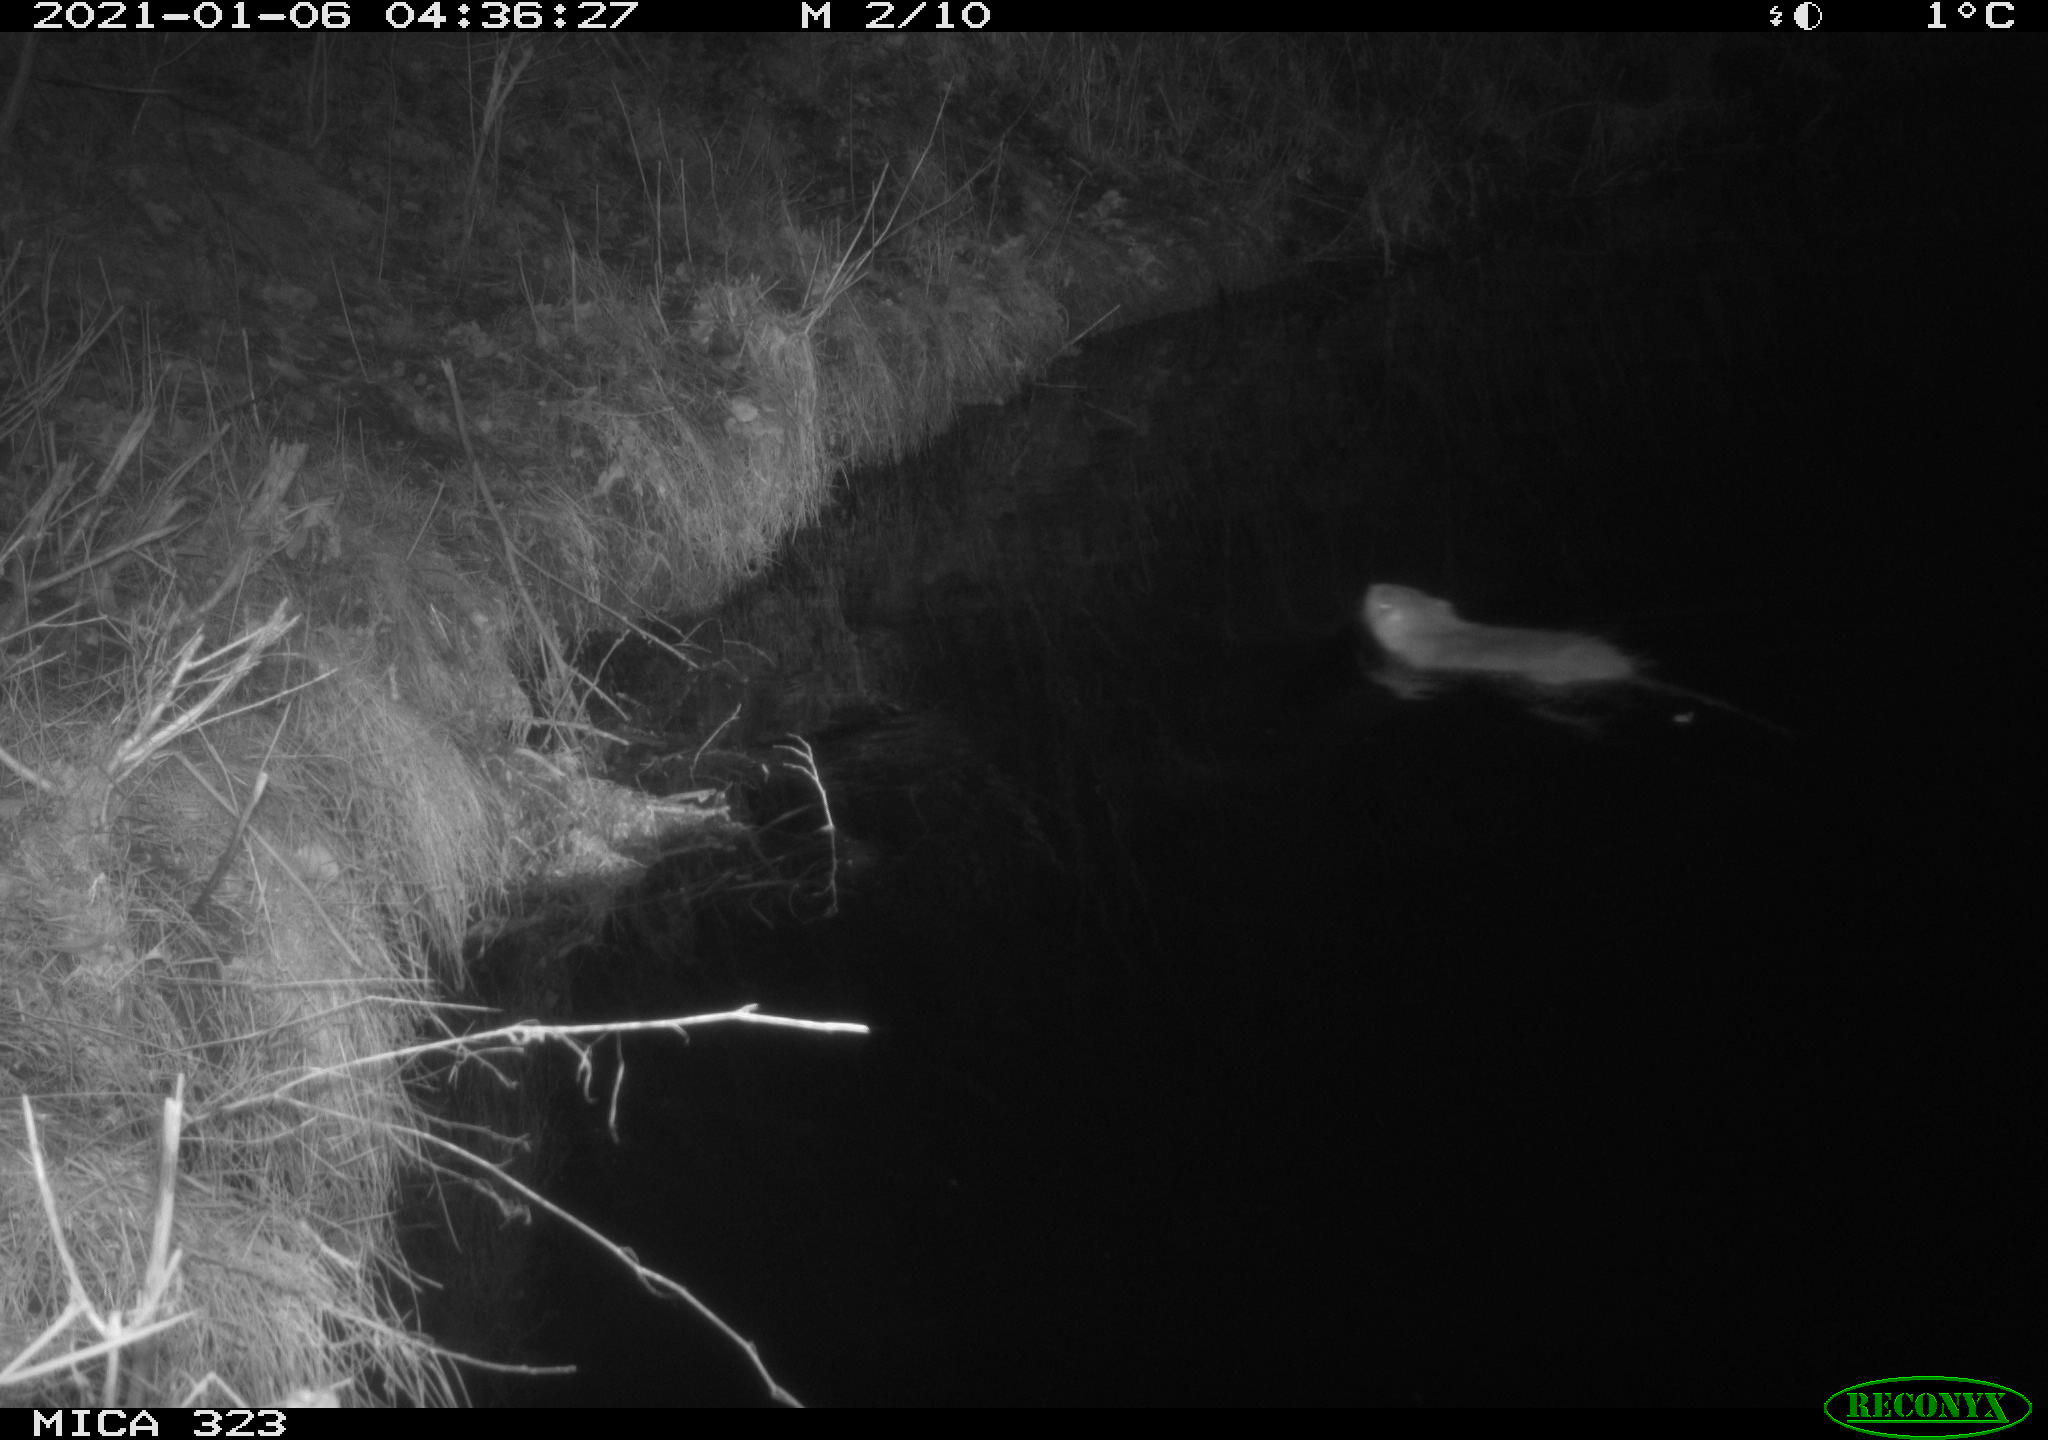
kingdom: Animalia
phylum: Chordata
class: Mammalia
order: Rodentia
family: Myocastoridae
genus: Myocastor
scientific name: Myocastor coypus
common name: Coypu
